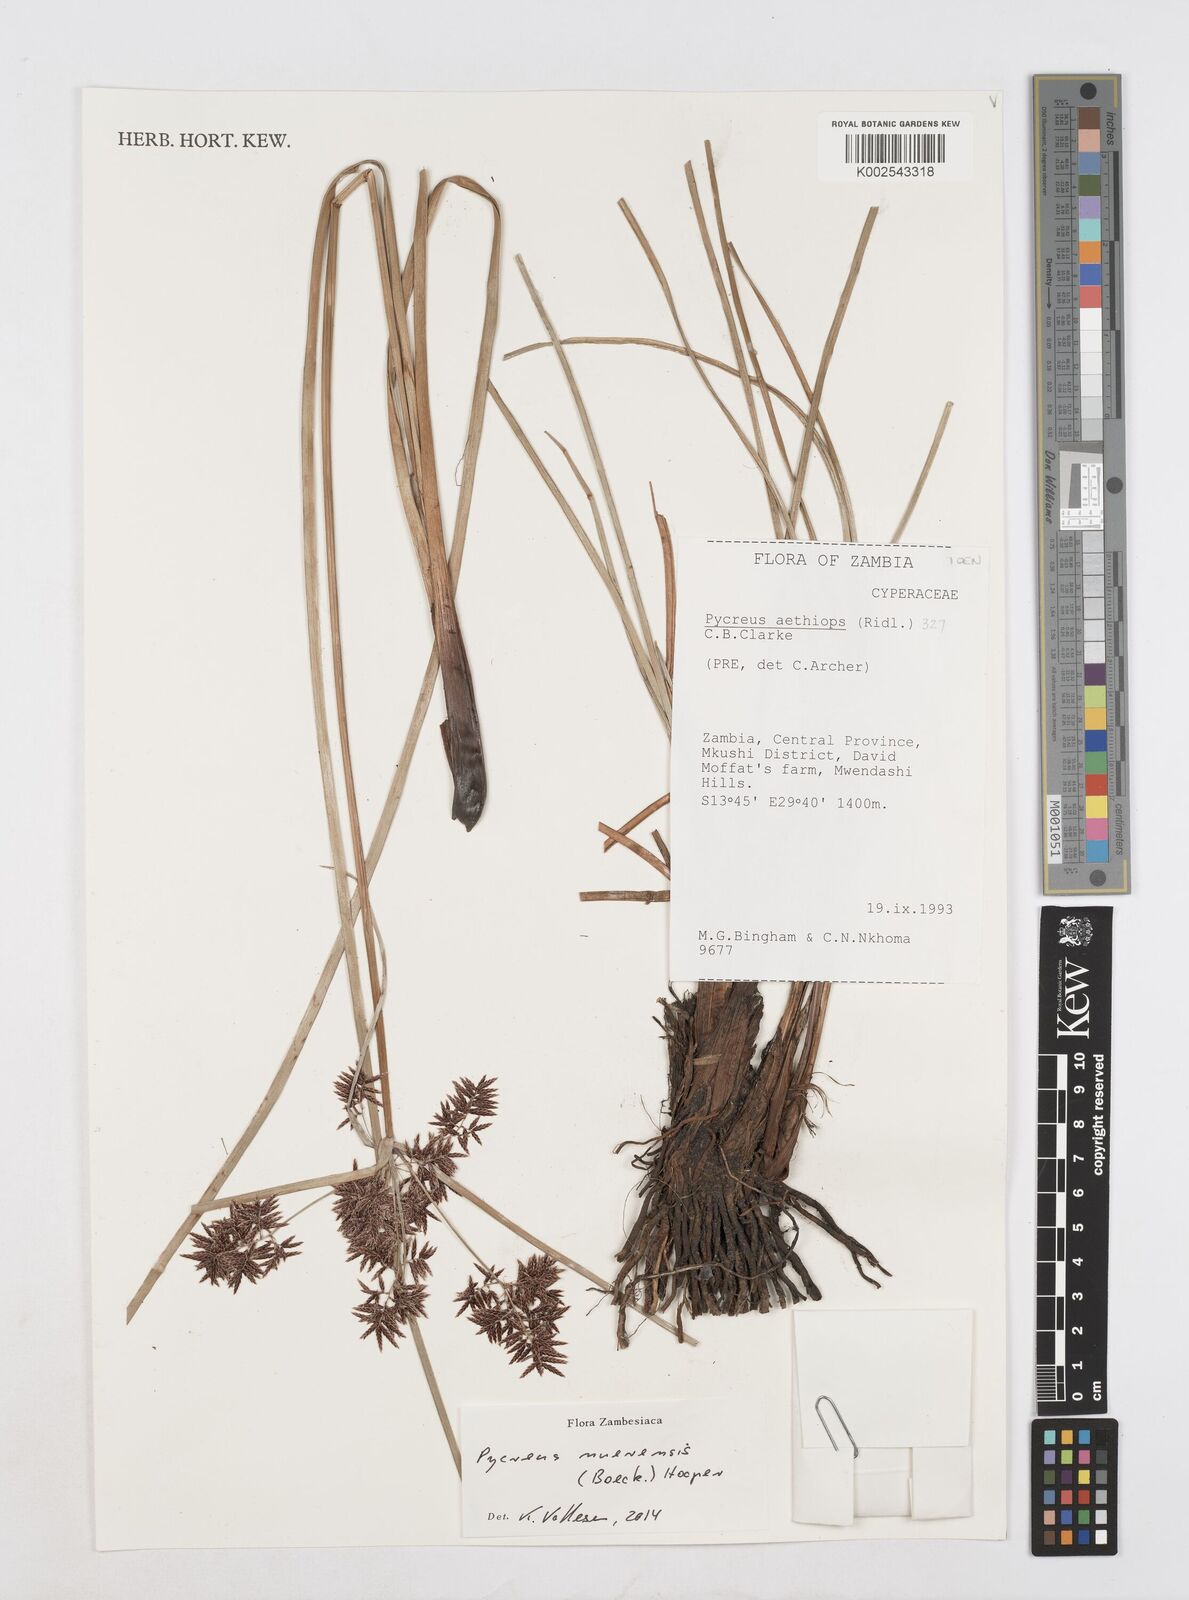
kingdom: Plantae
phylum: Tracheophyta
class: Liliopsida
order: Poales
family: Cyperaceae
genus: Cyperus
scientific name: Cyperus nuerensis
